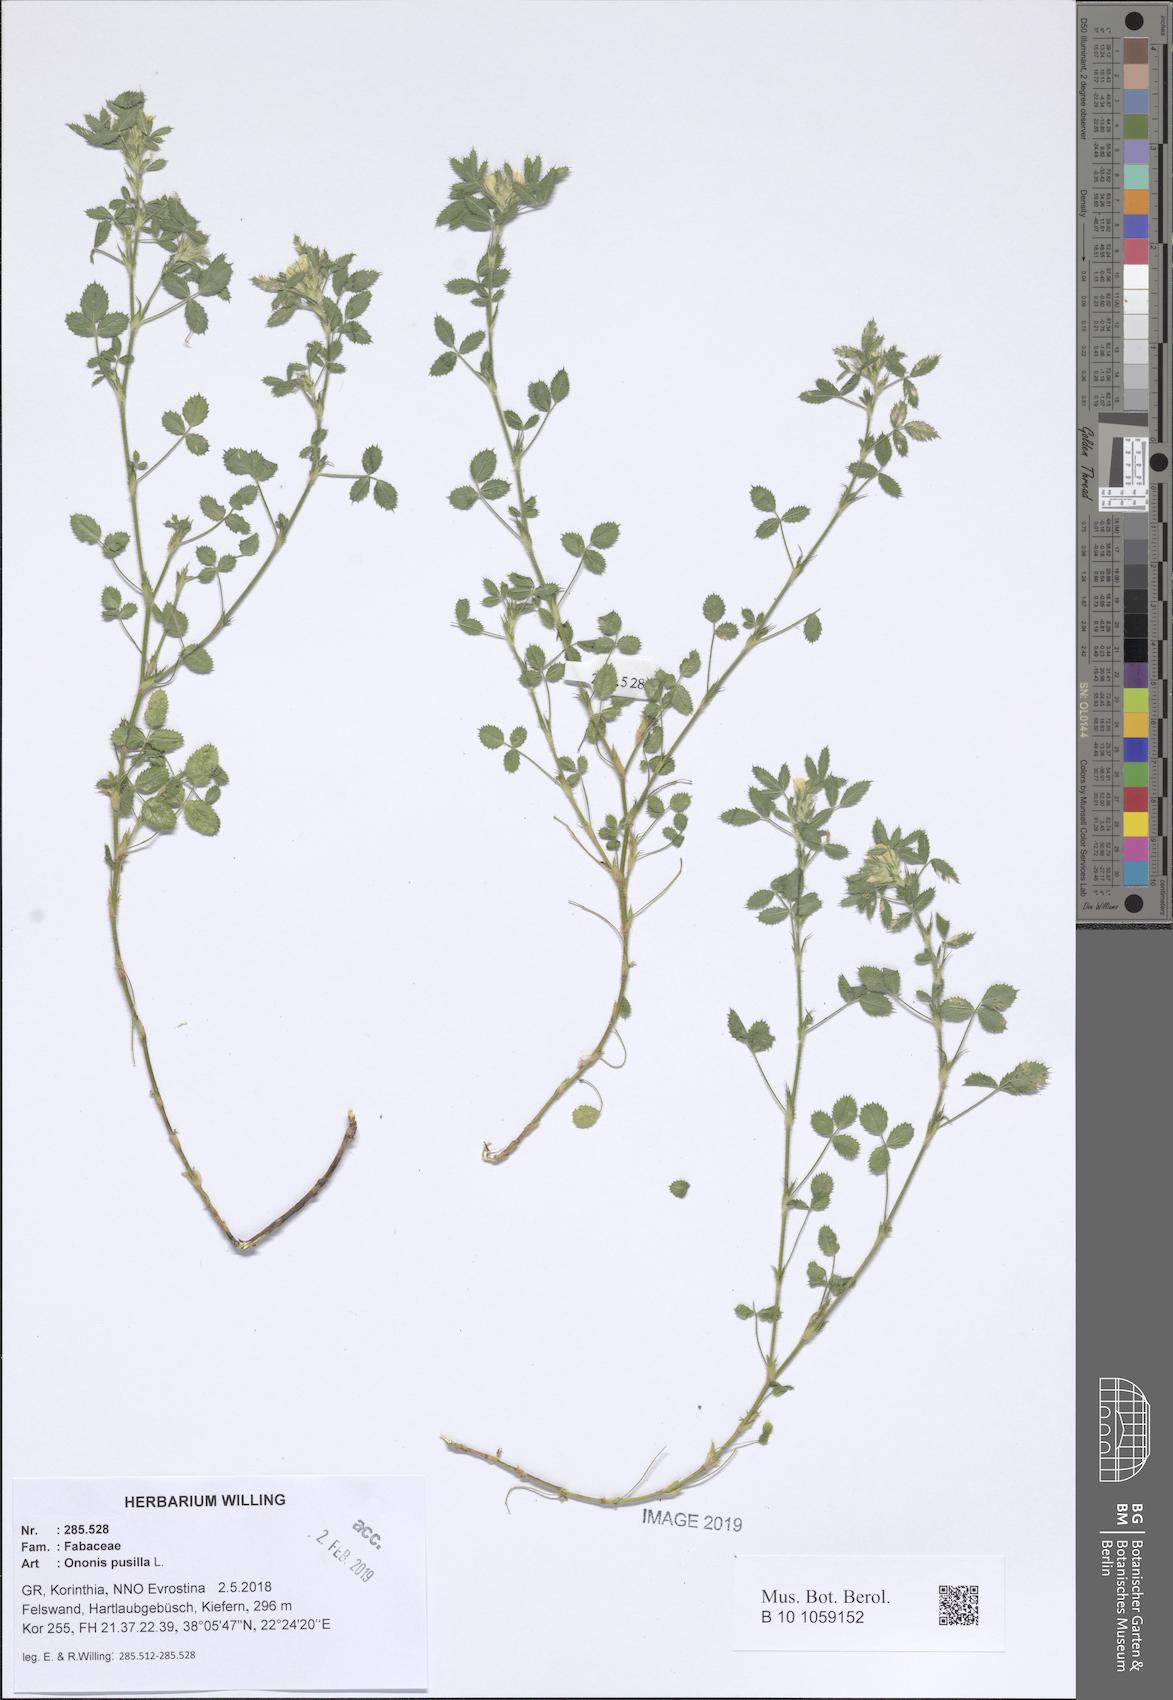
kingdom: Plantae
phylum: Tracheophyta
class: Magnoliopsida
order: Fabales
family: Fabaceae
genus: Ononis
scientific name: Ononis pusilla
